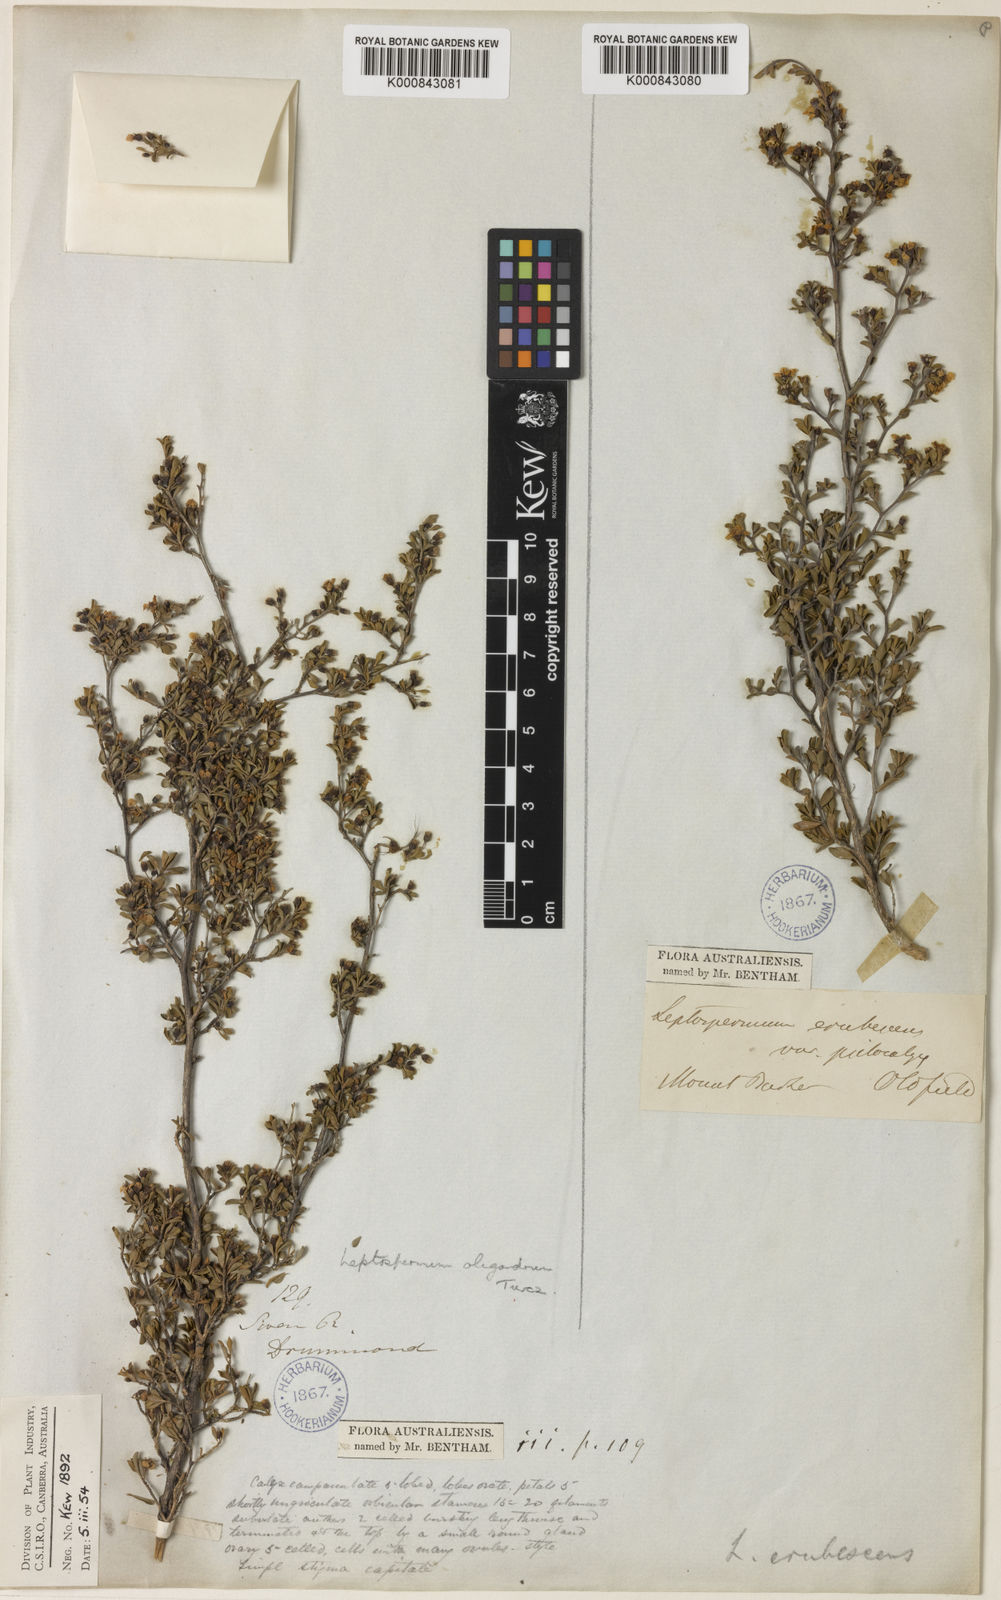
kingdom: Plantae
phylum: Tracheophyta
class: Magnoliopsida
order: Myrtales
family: Myrtaceae
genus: Leptospermum
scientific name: Leptospermum oligandrum
